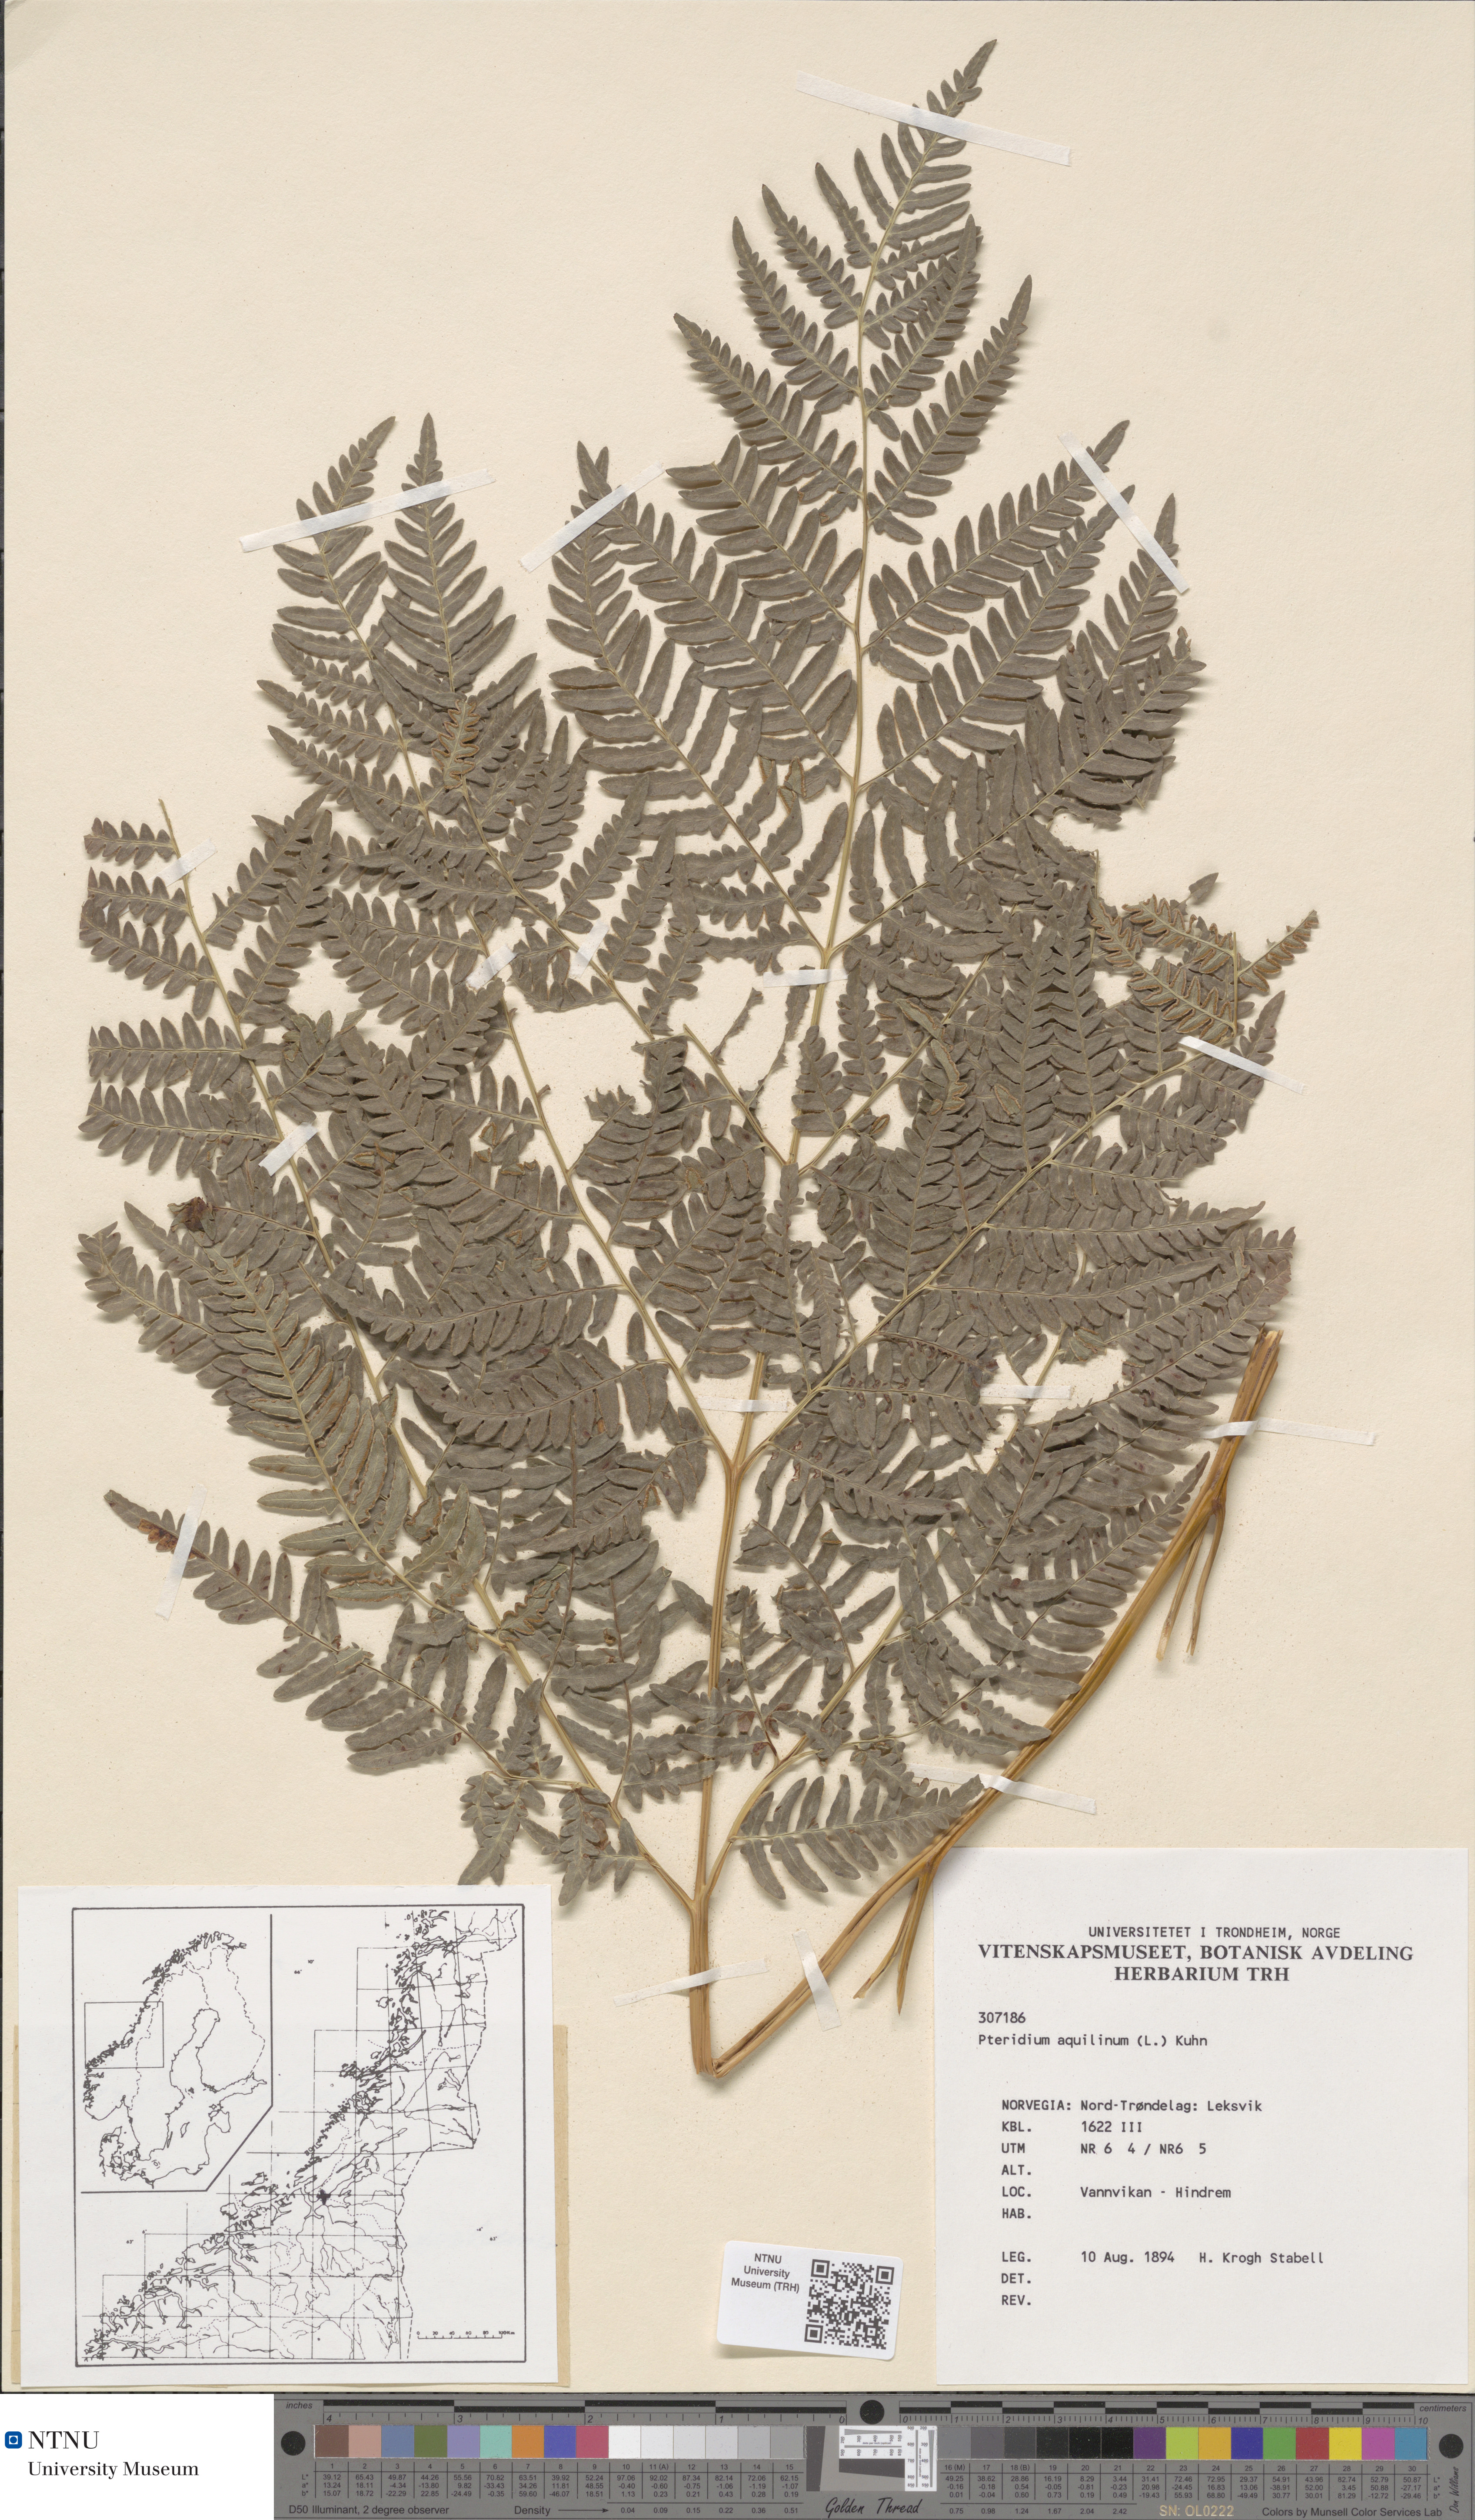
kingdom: Plantae
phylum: Tracheophyta
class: Polypodiopsida
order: Polypodiales
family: Dennstaedtiaceae
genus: Pteridium
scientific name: Pteridium aquilinum
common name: Bracken
